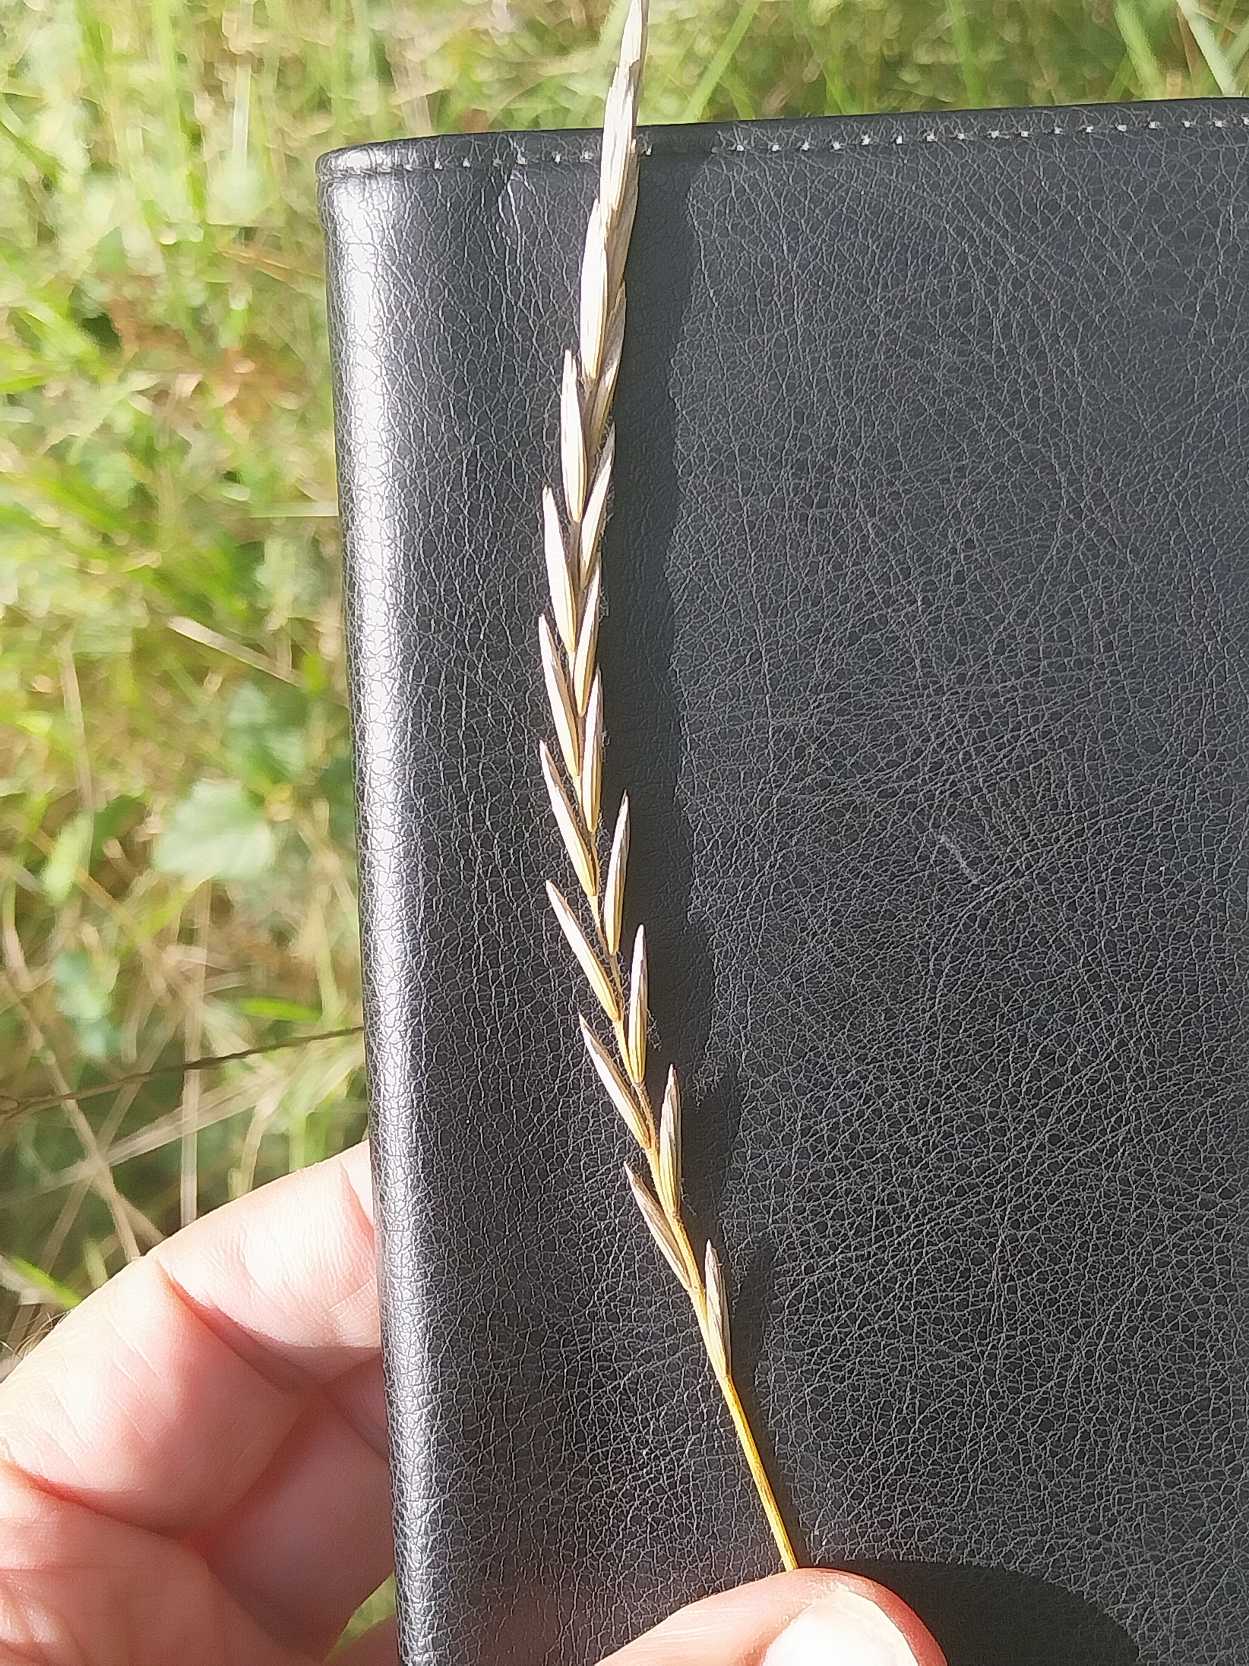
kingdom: Plantae
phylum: Tracheophyta
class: Liliopsida
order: Poales
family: Poaceae
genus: Elymus
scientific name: Elymus repens
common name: Almindelig kvik
